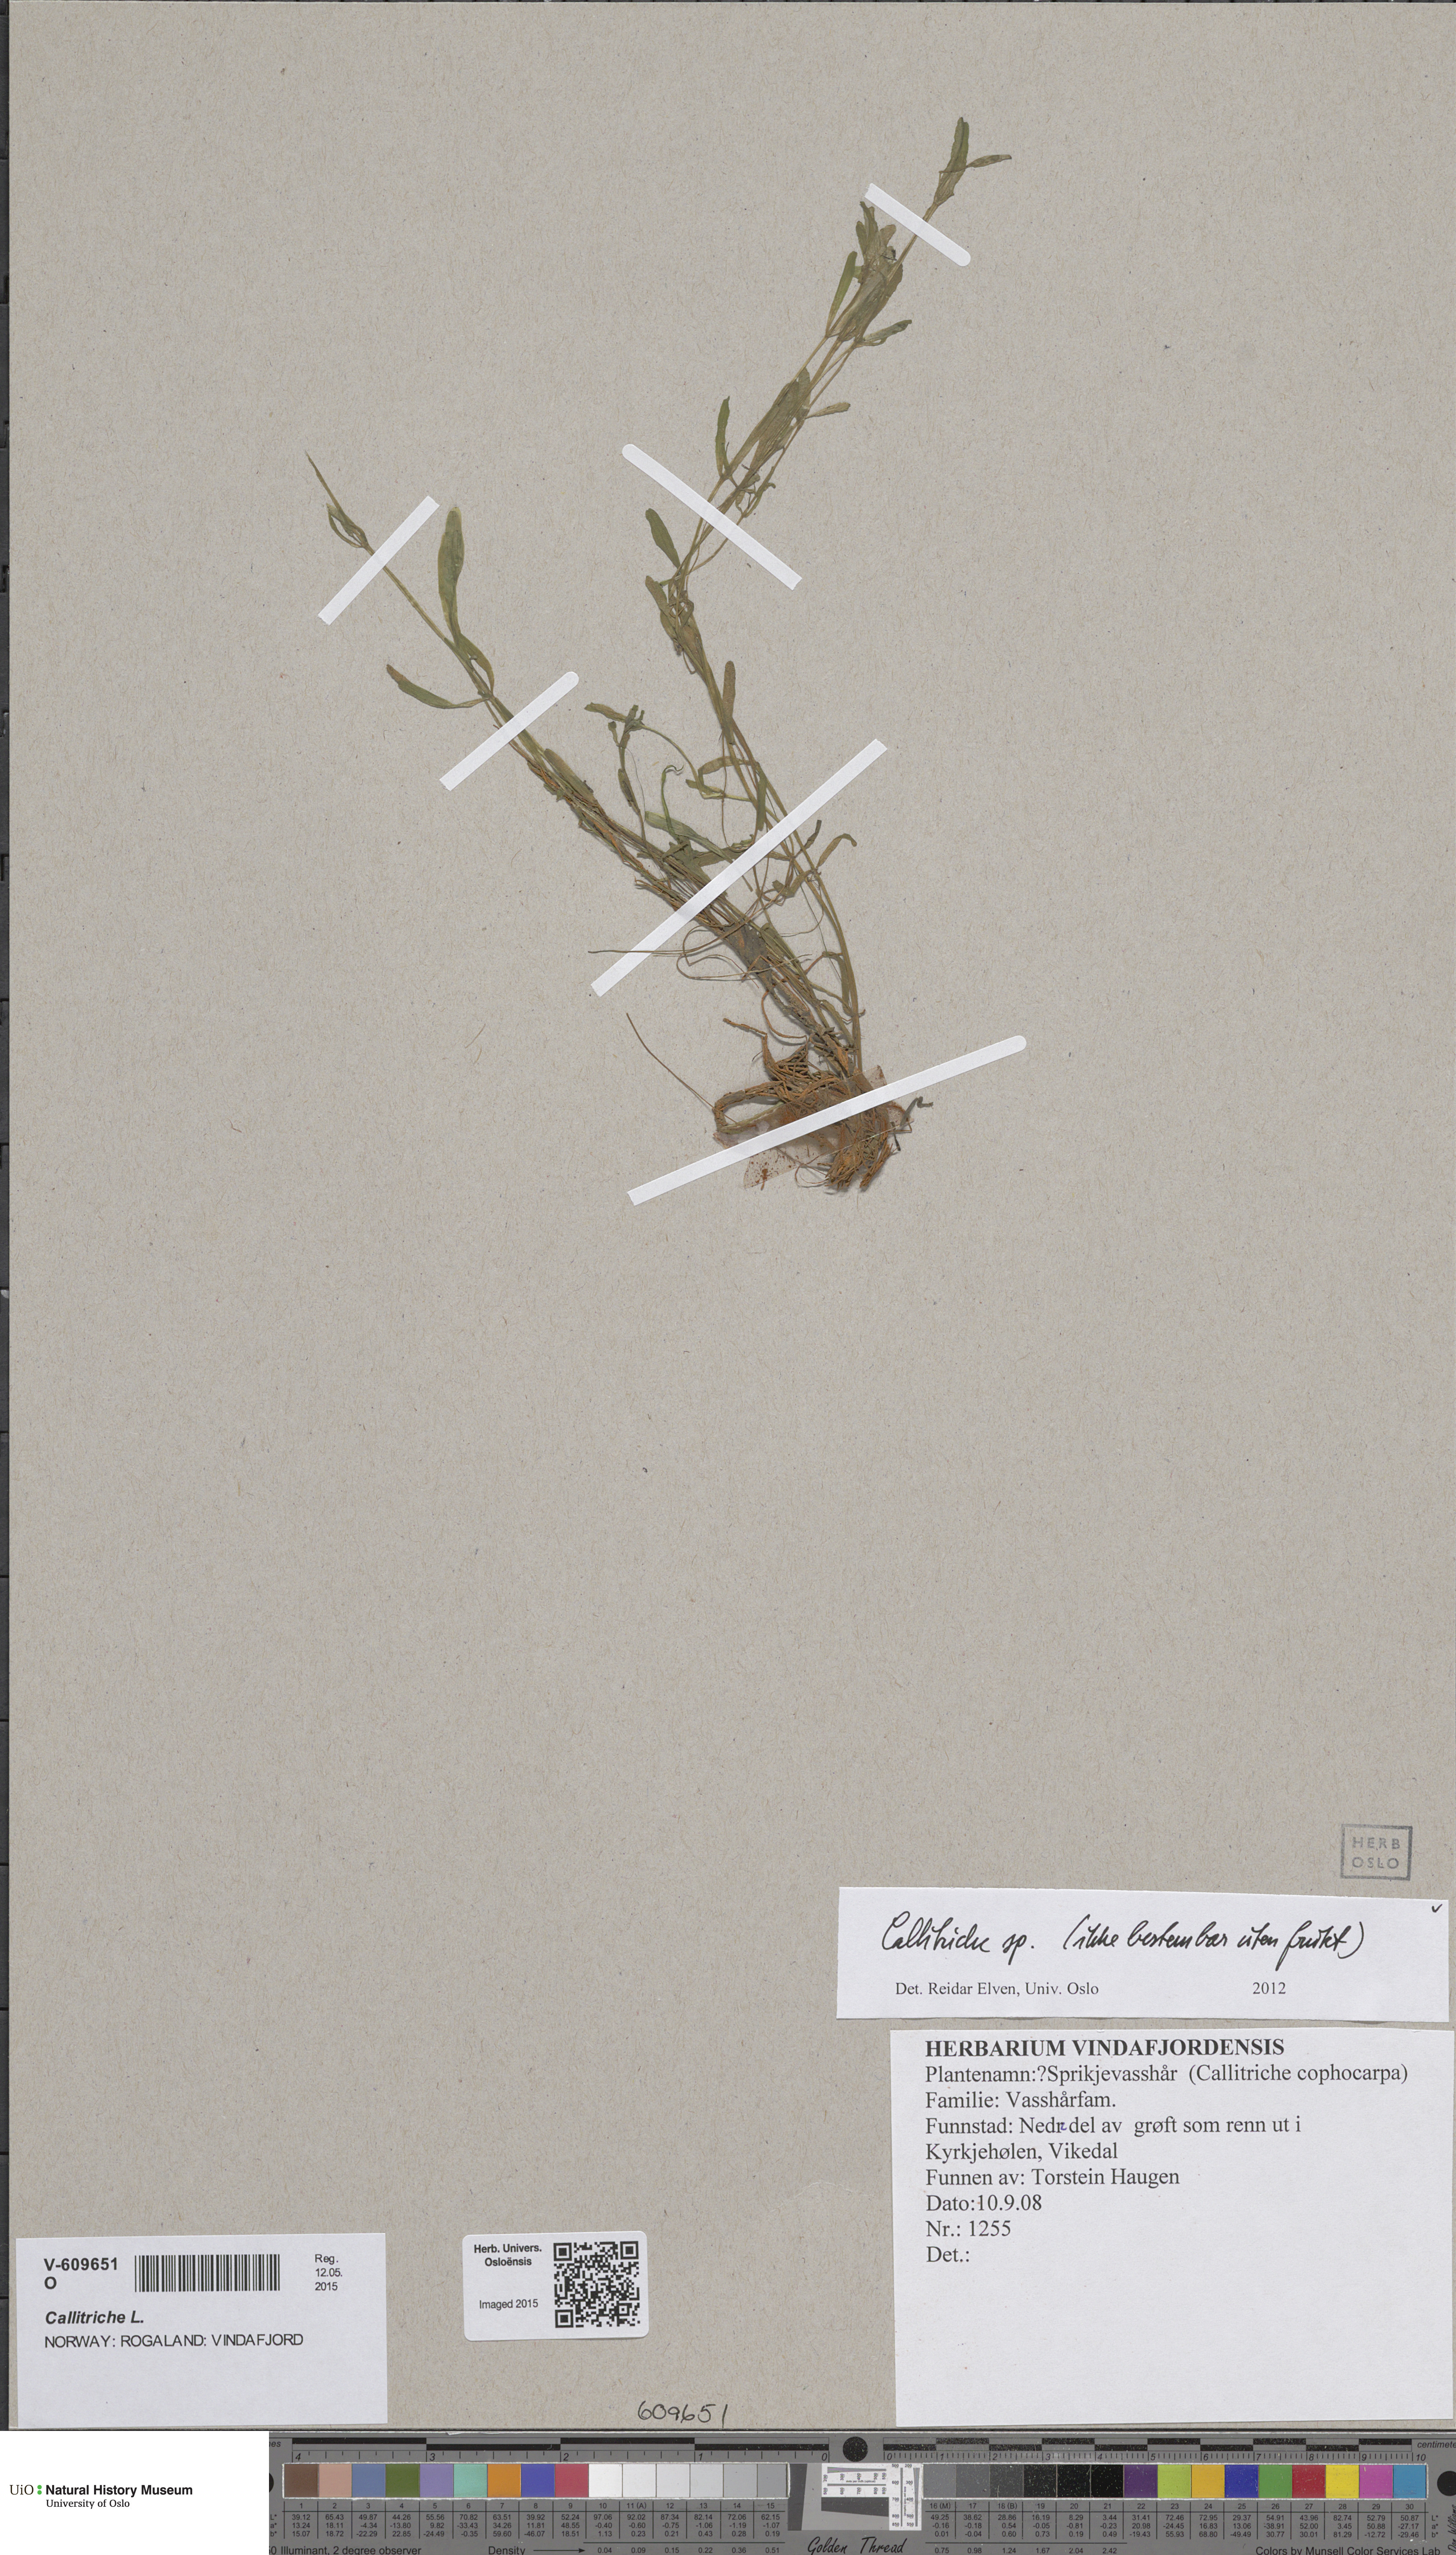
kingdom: Plantae
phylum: Tracheophyta
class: Magnoliopsida
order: Lamiales
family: Plantaginaceae
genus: Callitriche
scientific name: Callitriche
